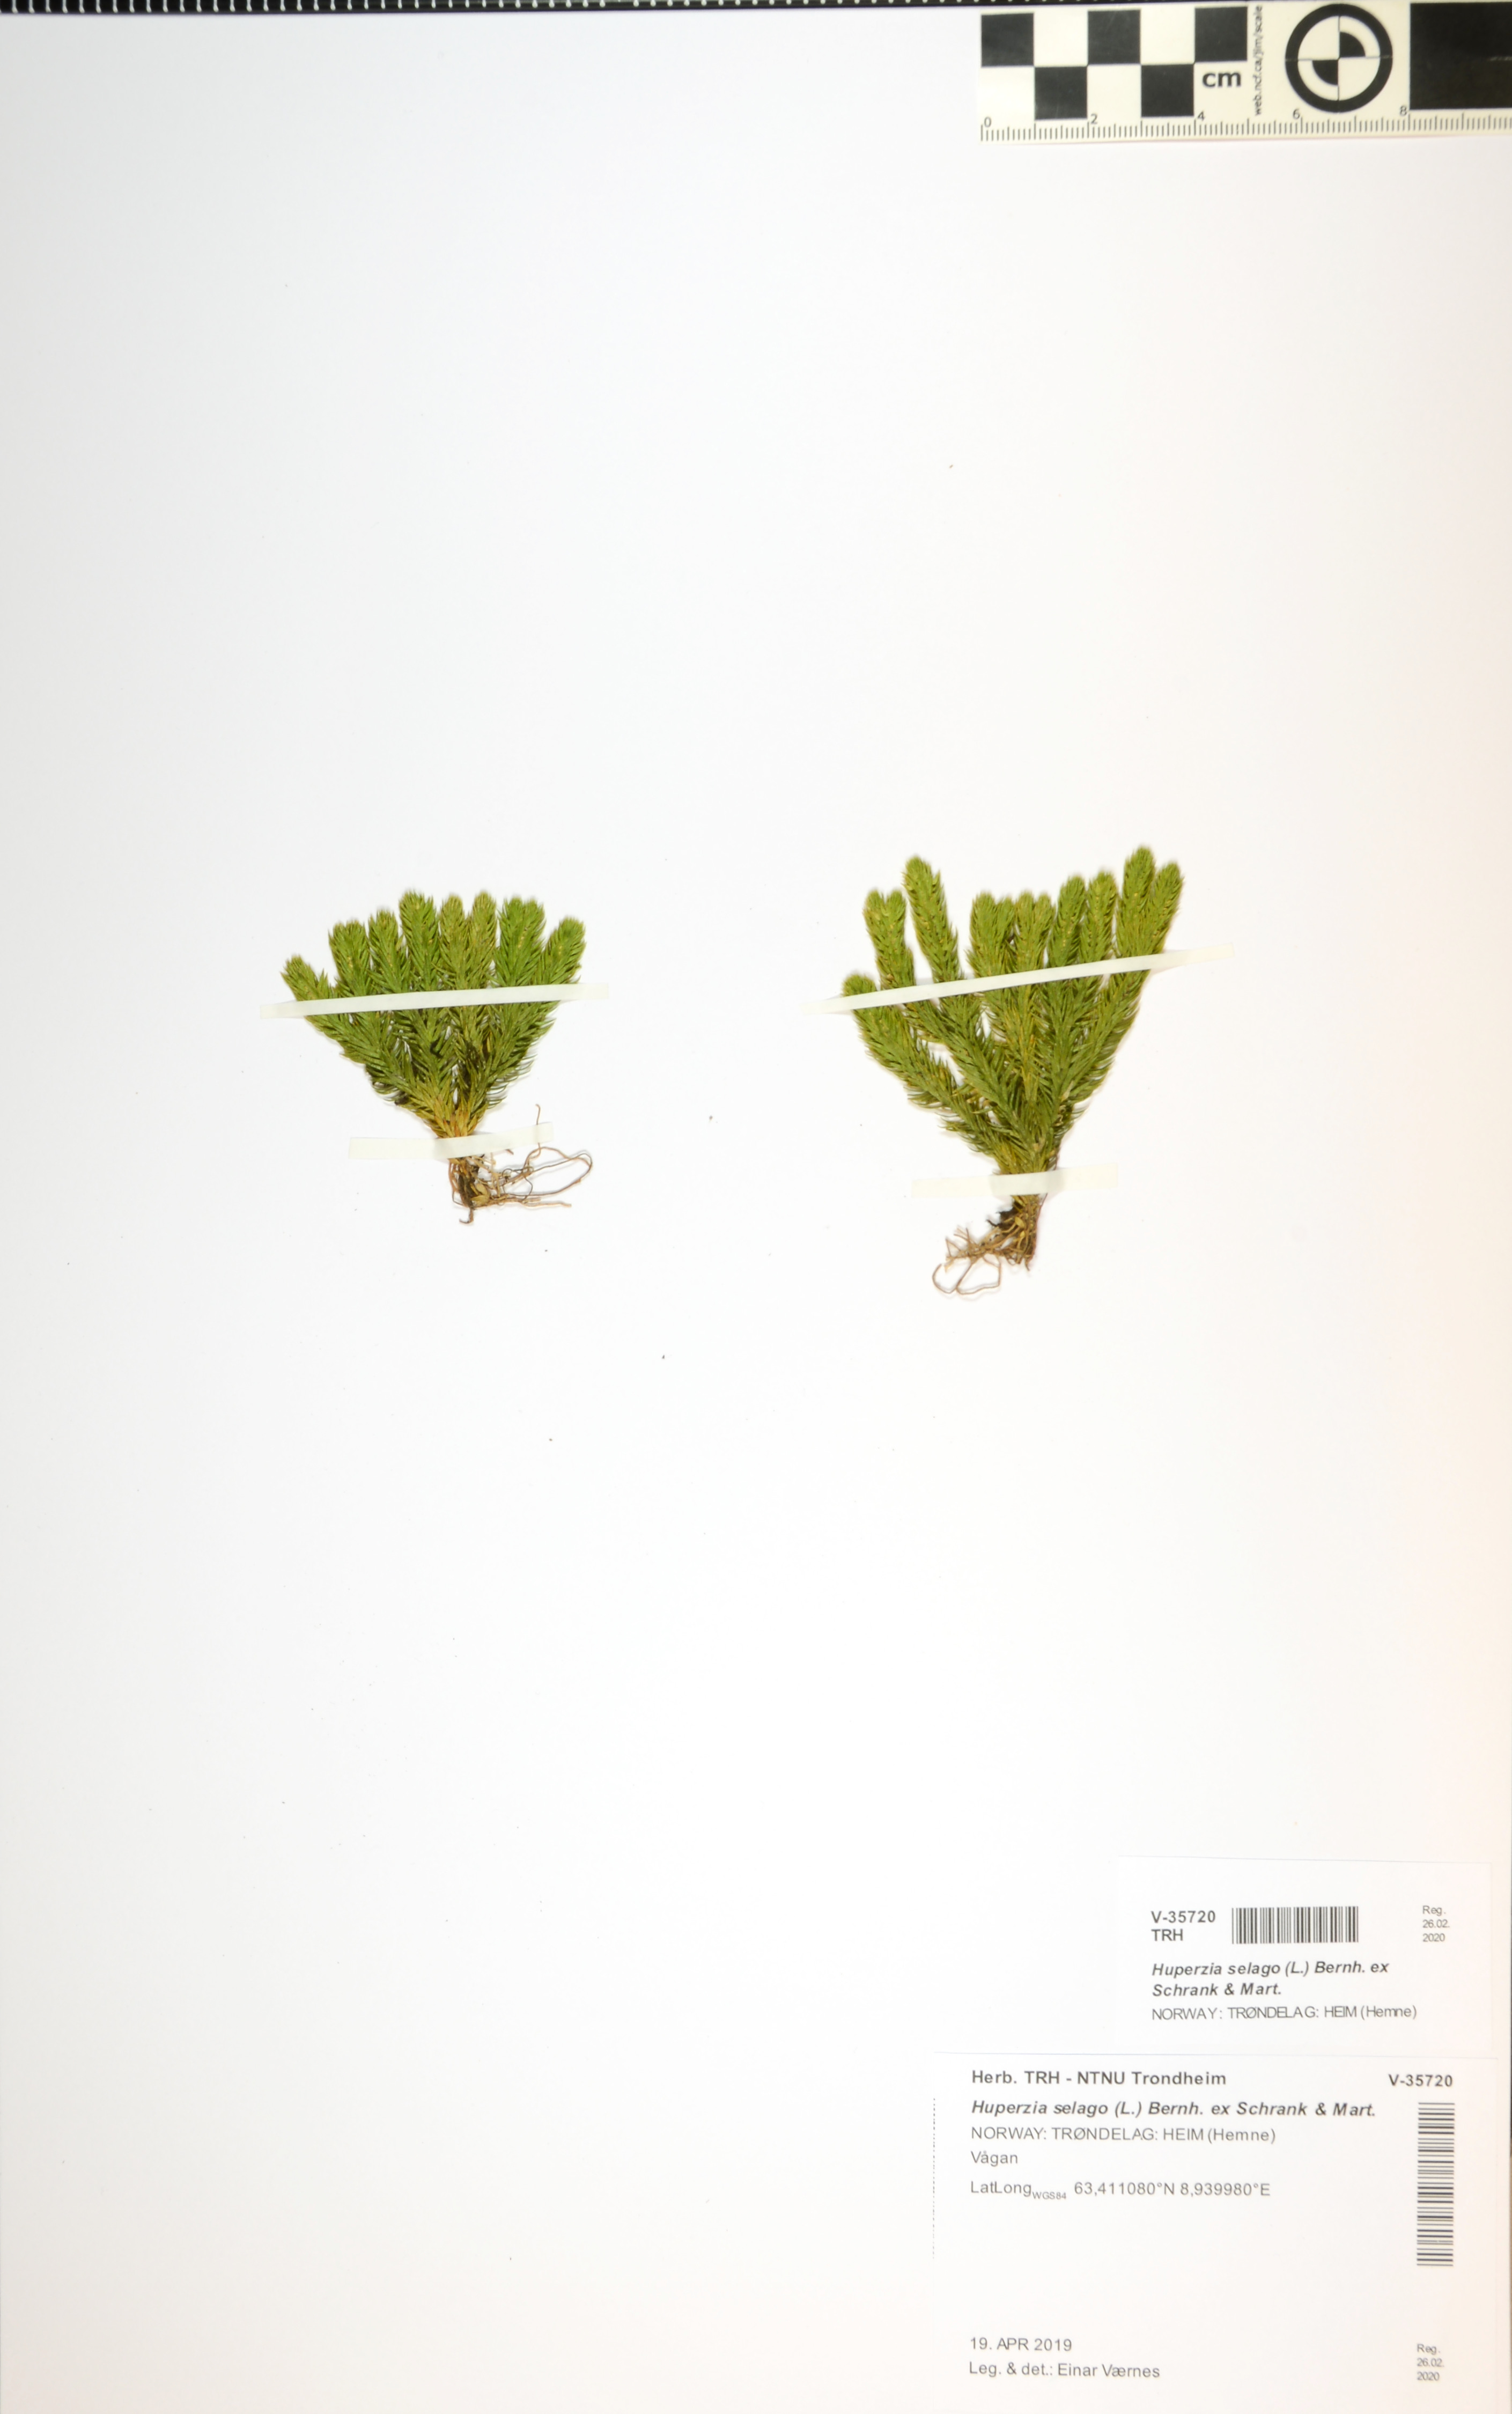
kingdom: Plantae
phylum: Tracheophyta
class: Lycopodiopsida
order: Lycopodiales
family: Lycopodiaceae
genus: Huperzia
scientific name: Huperzia selago
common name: Northern firmoss
